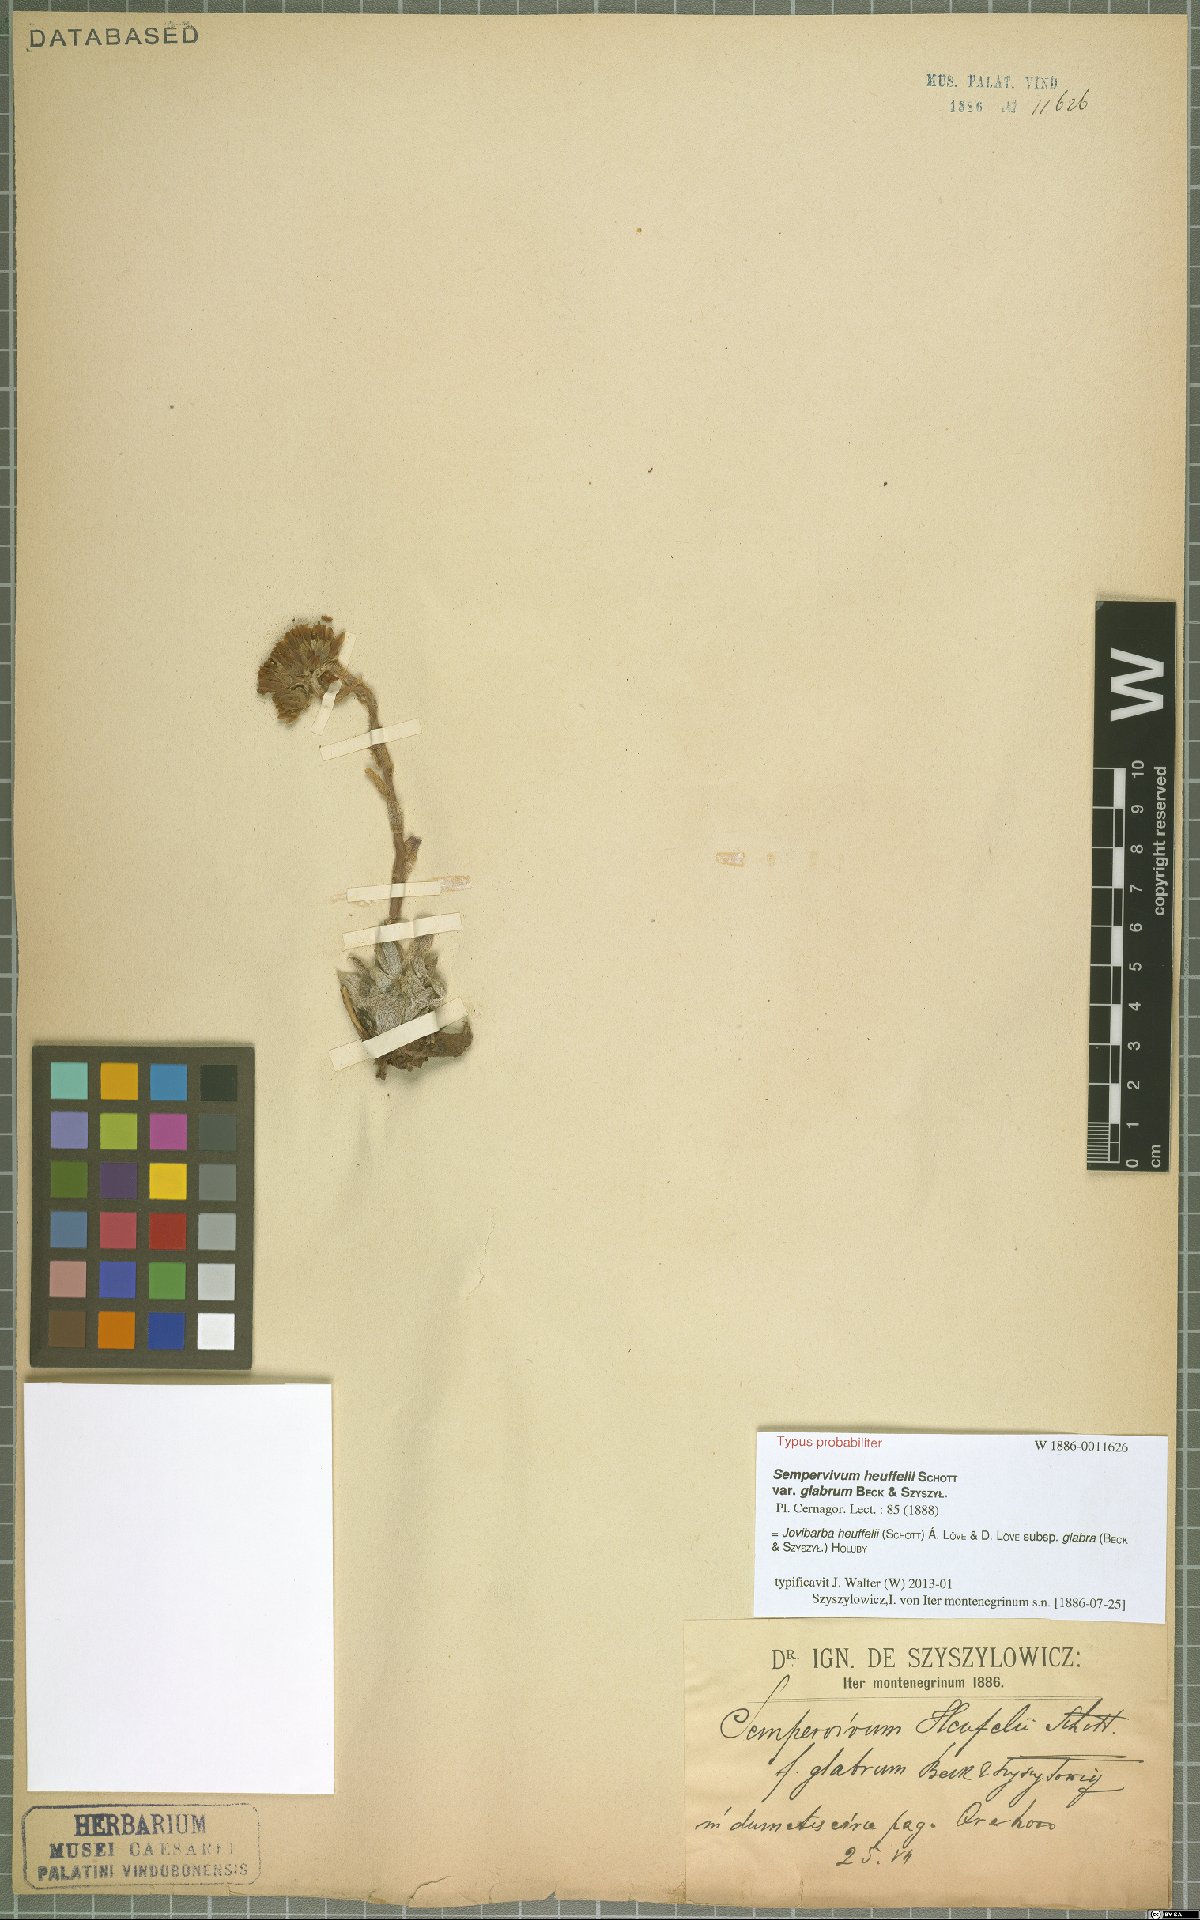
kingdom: Plantae
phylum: Tracheophyta
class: Magnoliopsida
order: Saxifragales
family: Crassulaceae
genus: Sempervivum
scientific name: Sempervivum heuffelii
